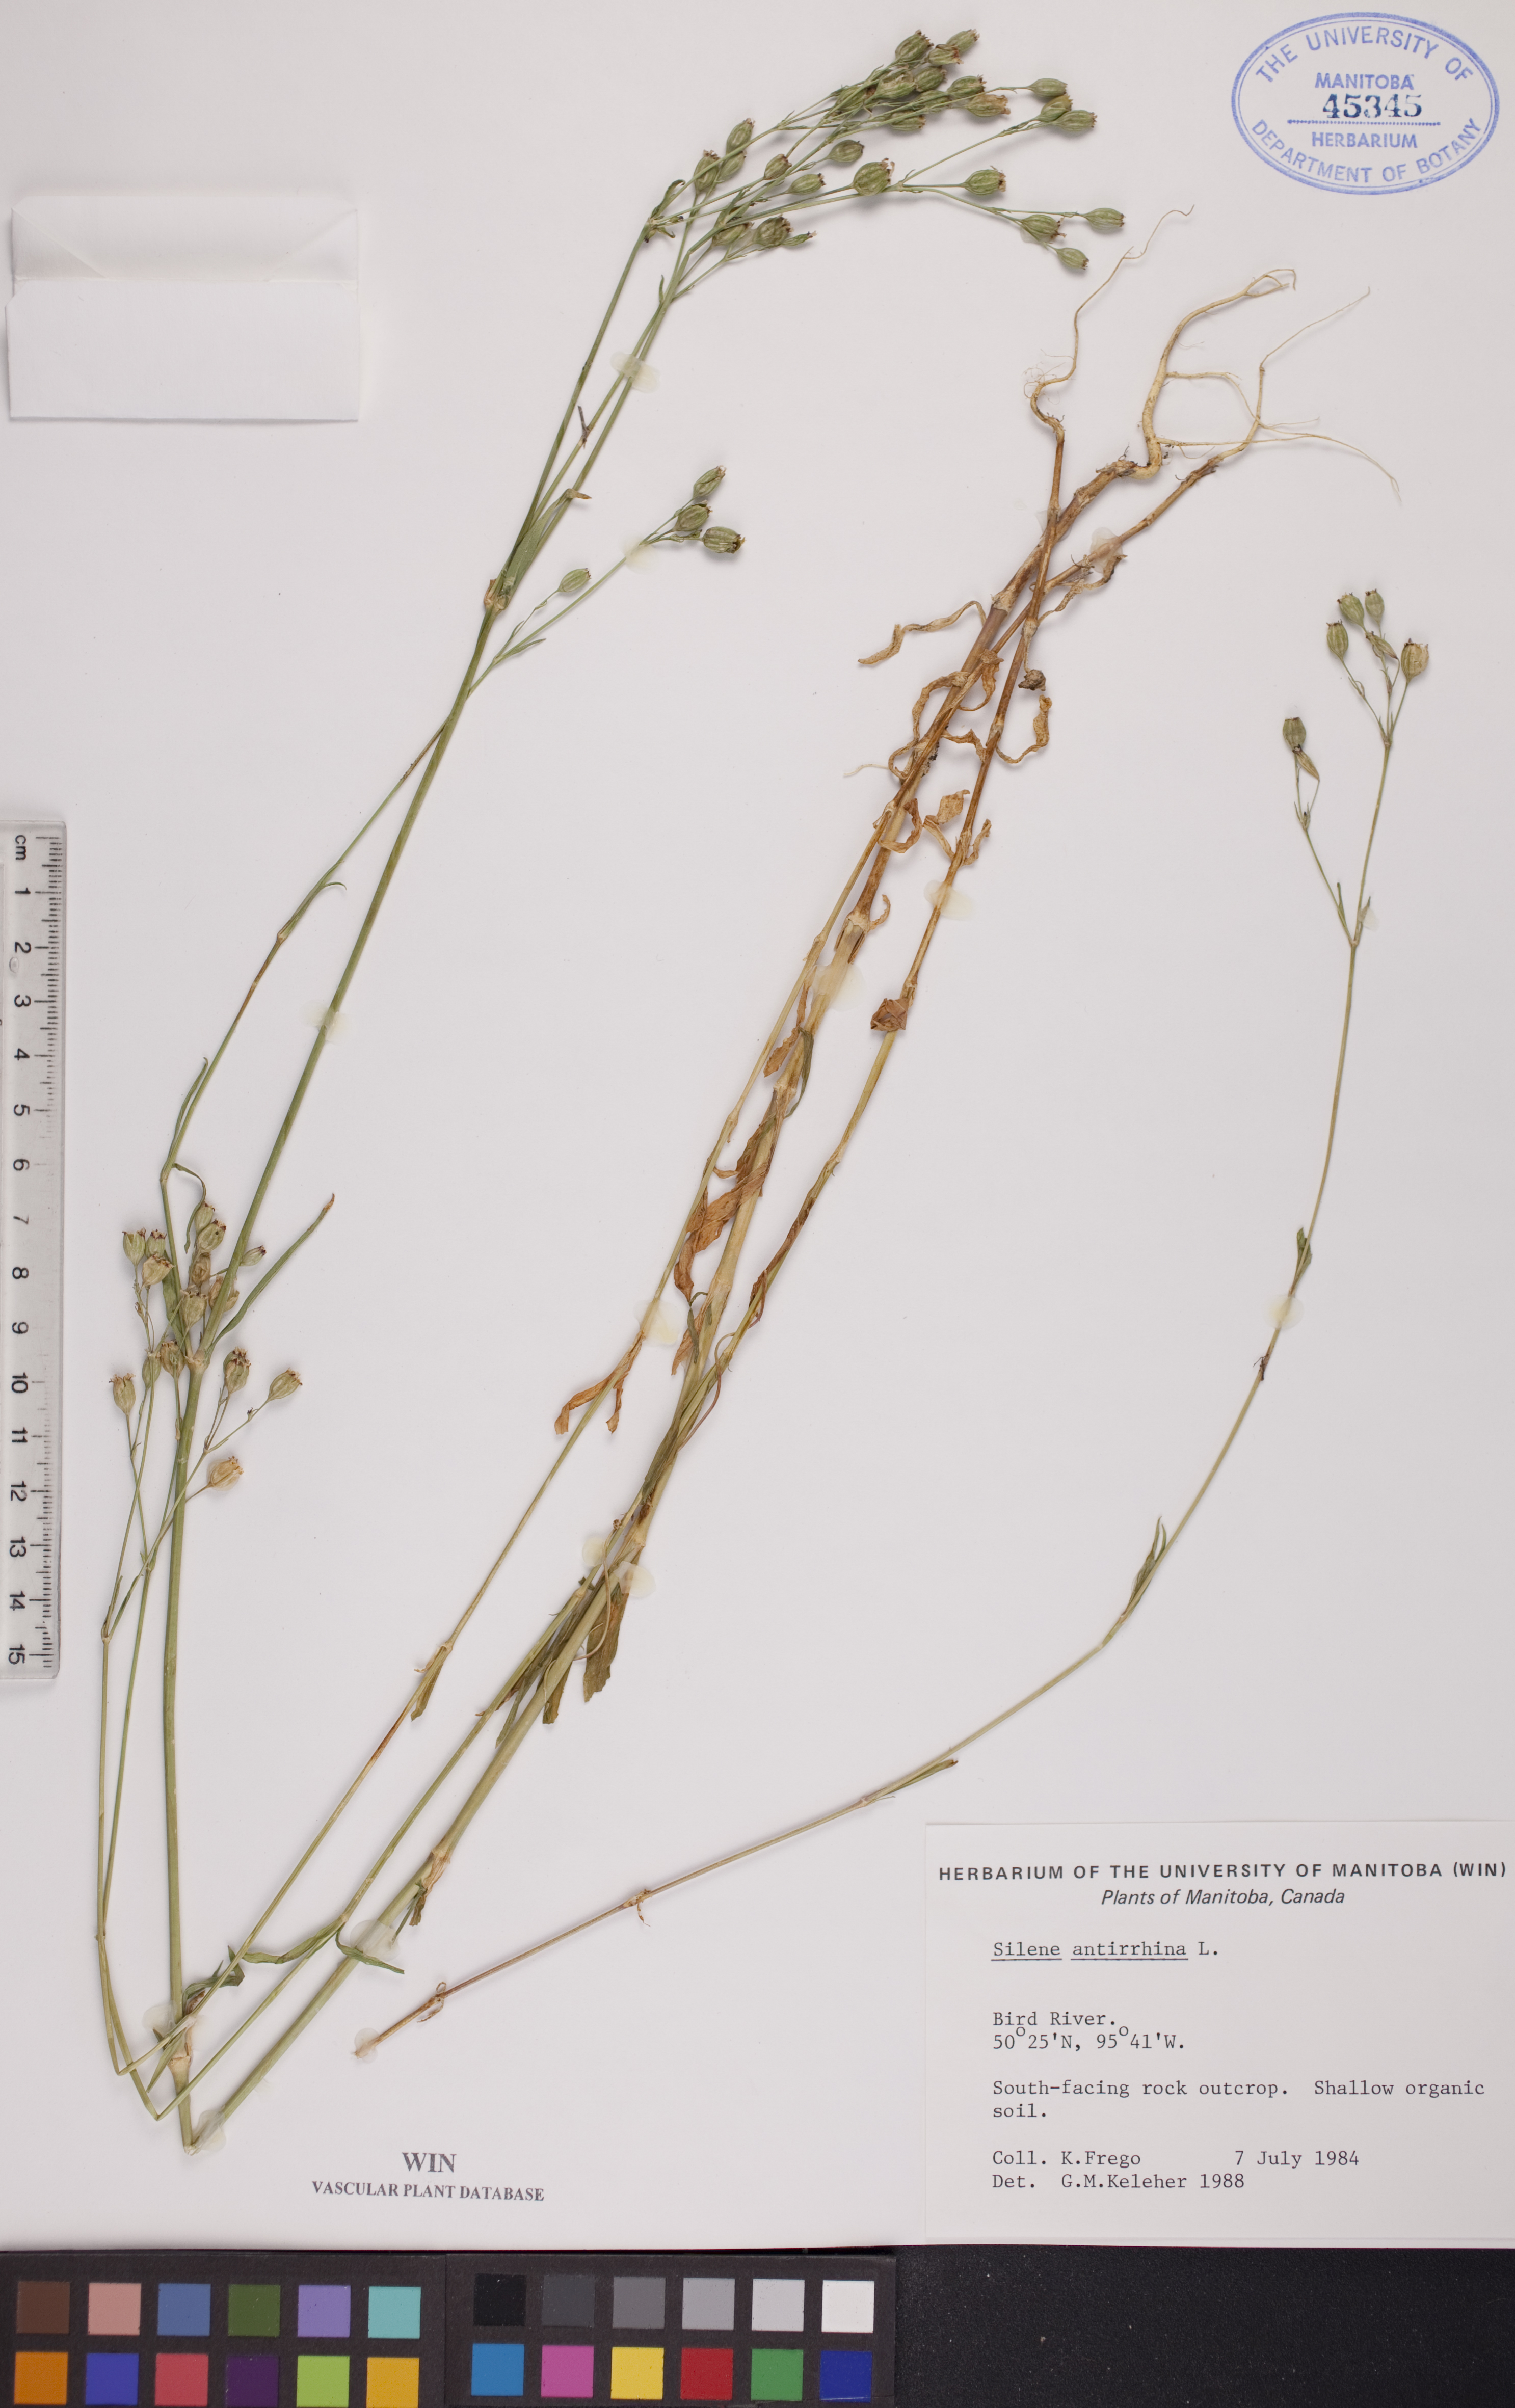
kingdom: Plantae
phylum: Tracheophyta
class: Magnoliopsida
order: Caryophyllales
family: Caryophyllaceae
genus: Silene
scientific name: Silene antirrhina
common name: Sleepy catchfly
